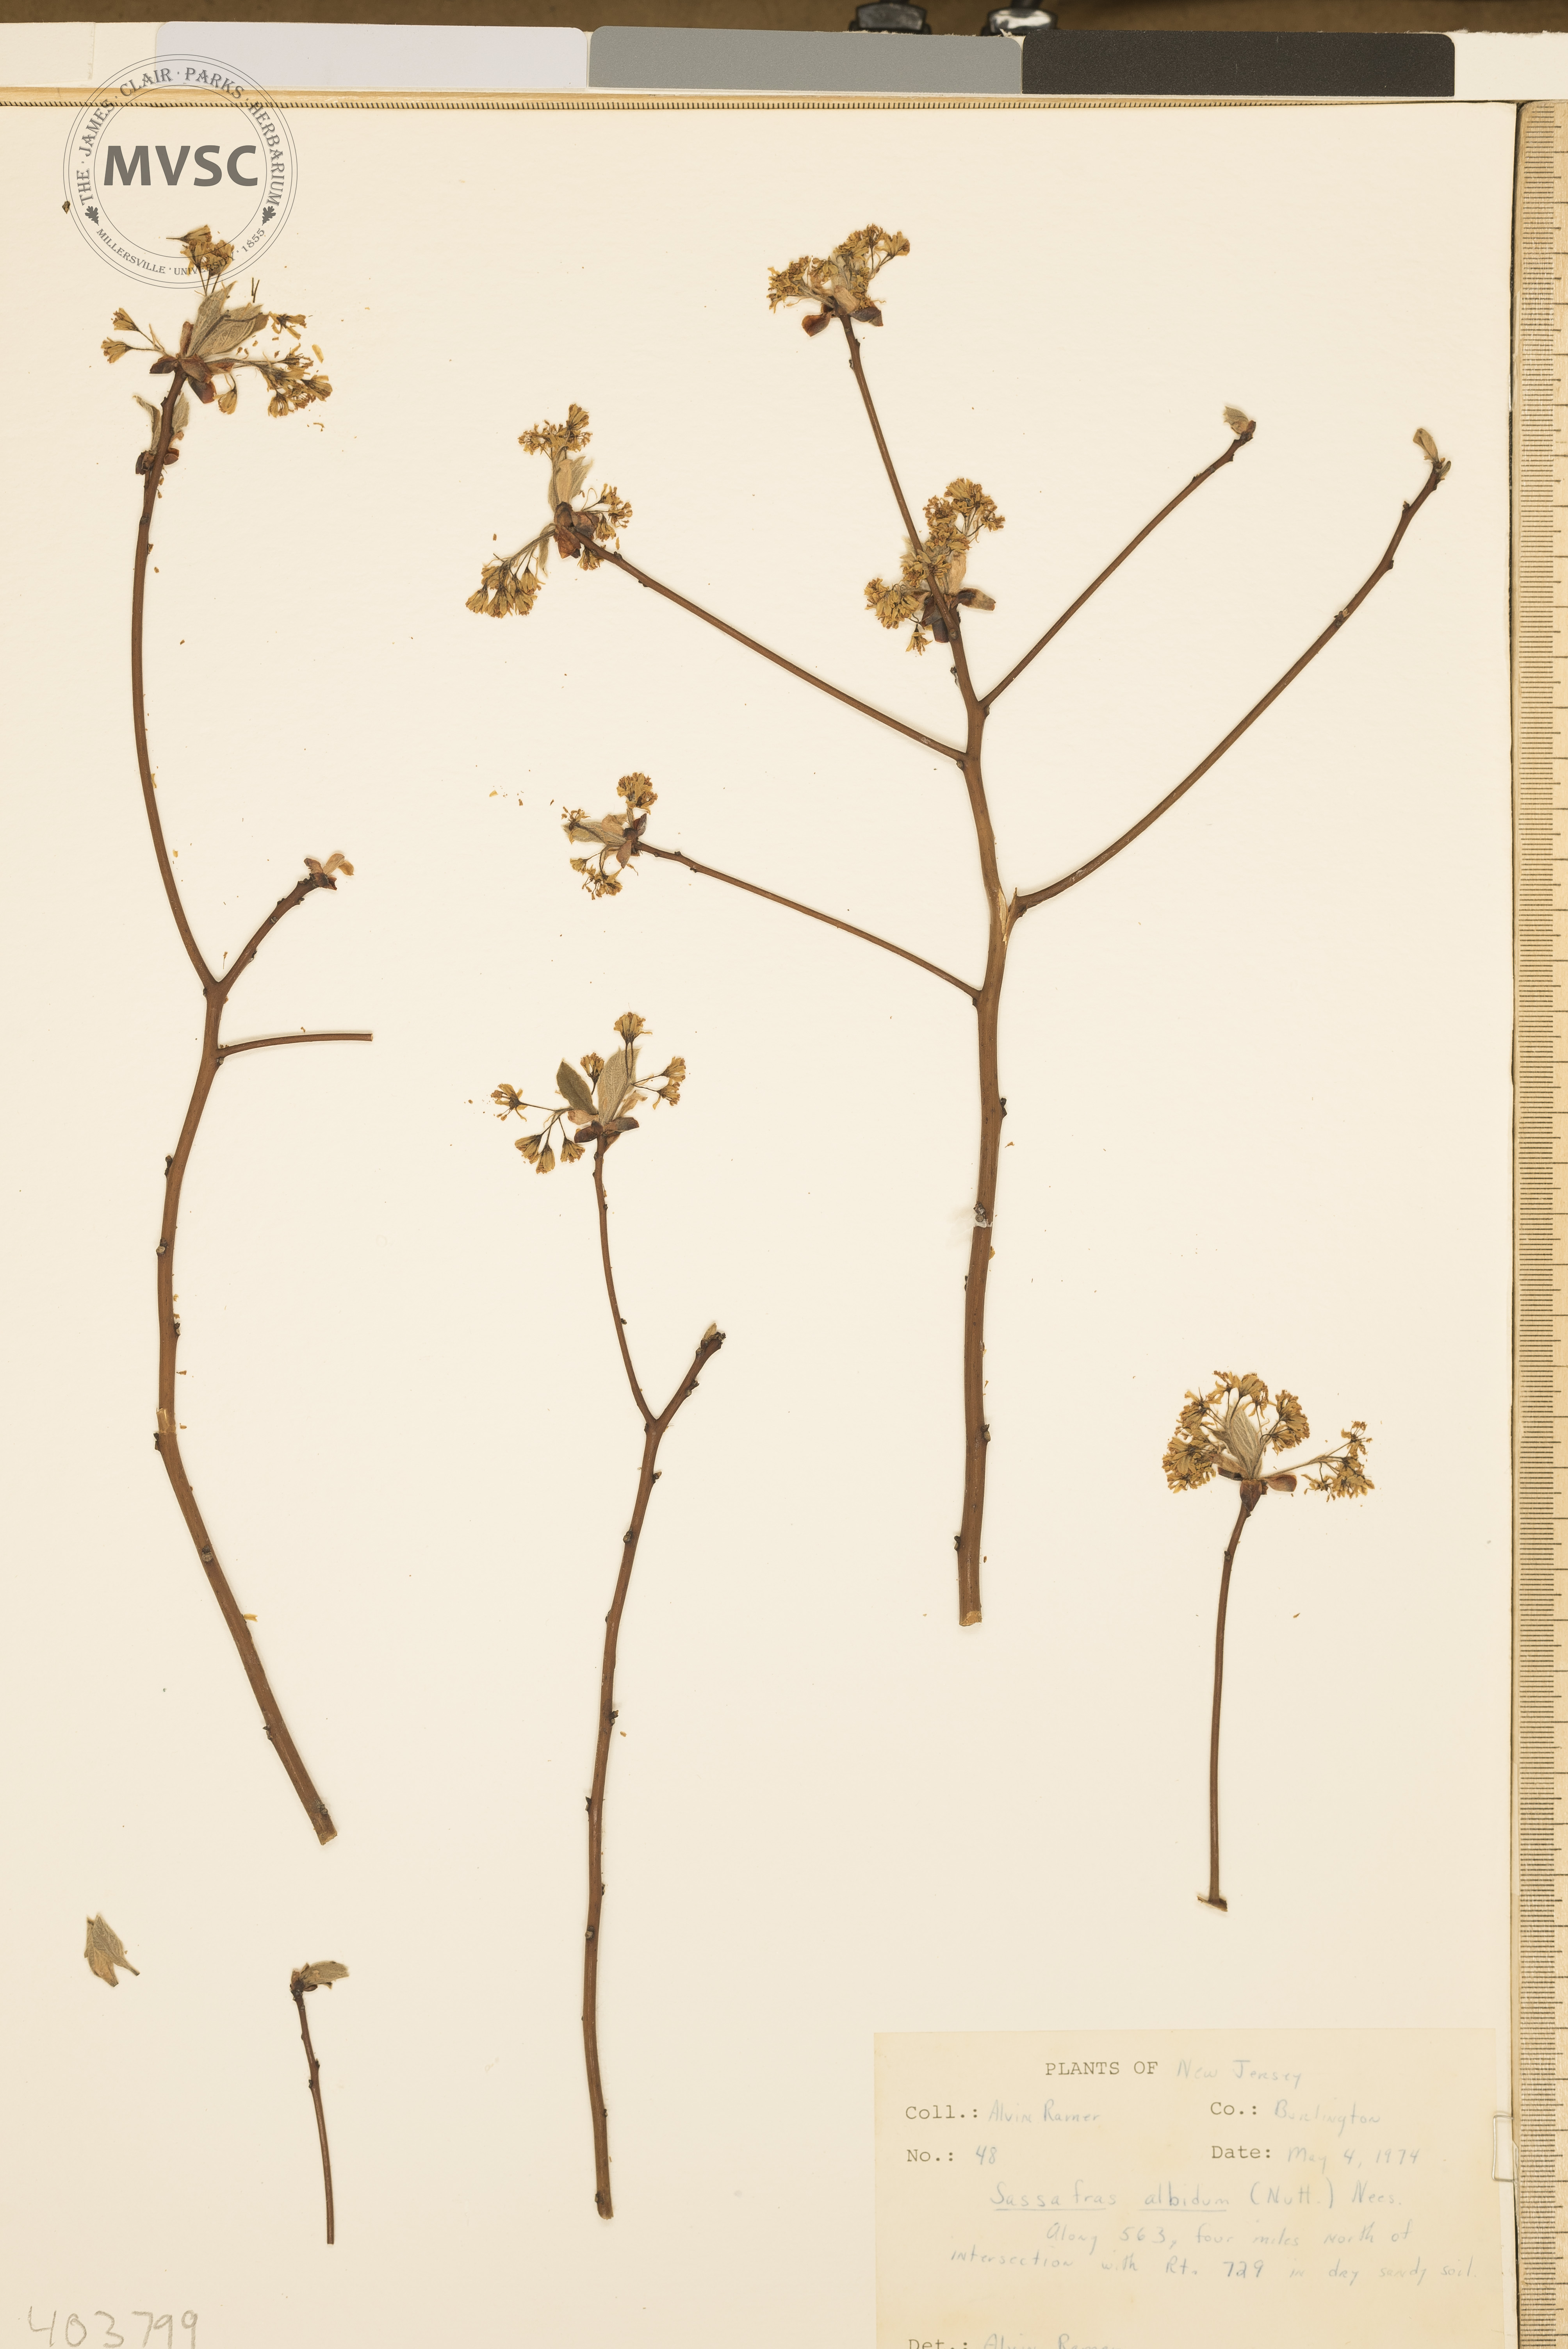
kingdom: Plantae
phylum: Tracheophyta
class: Magnoliopsida
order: Laurales
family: Lauraceae
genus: Sassafras
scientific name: Sassafras albidum
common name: Sassafras
